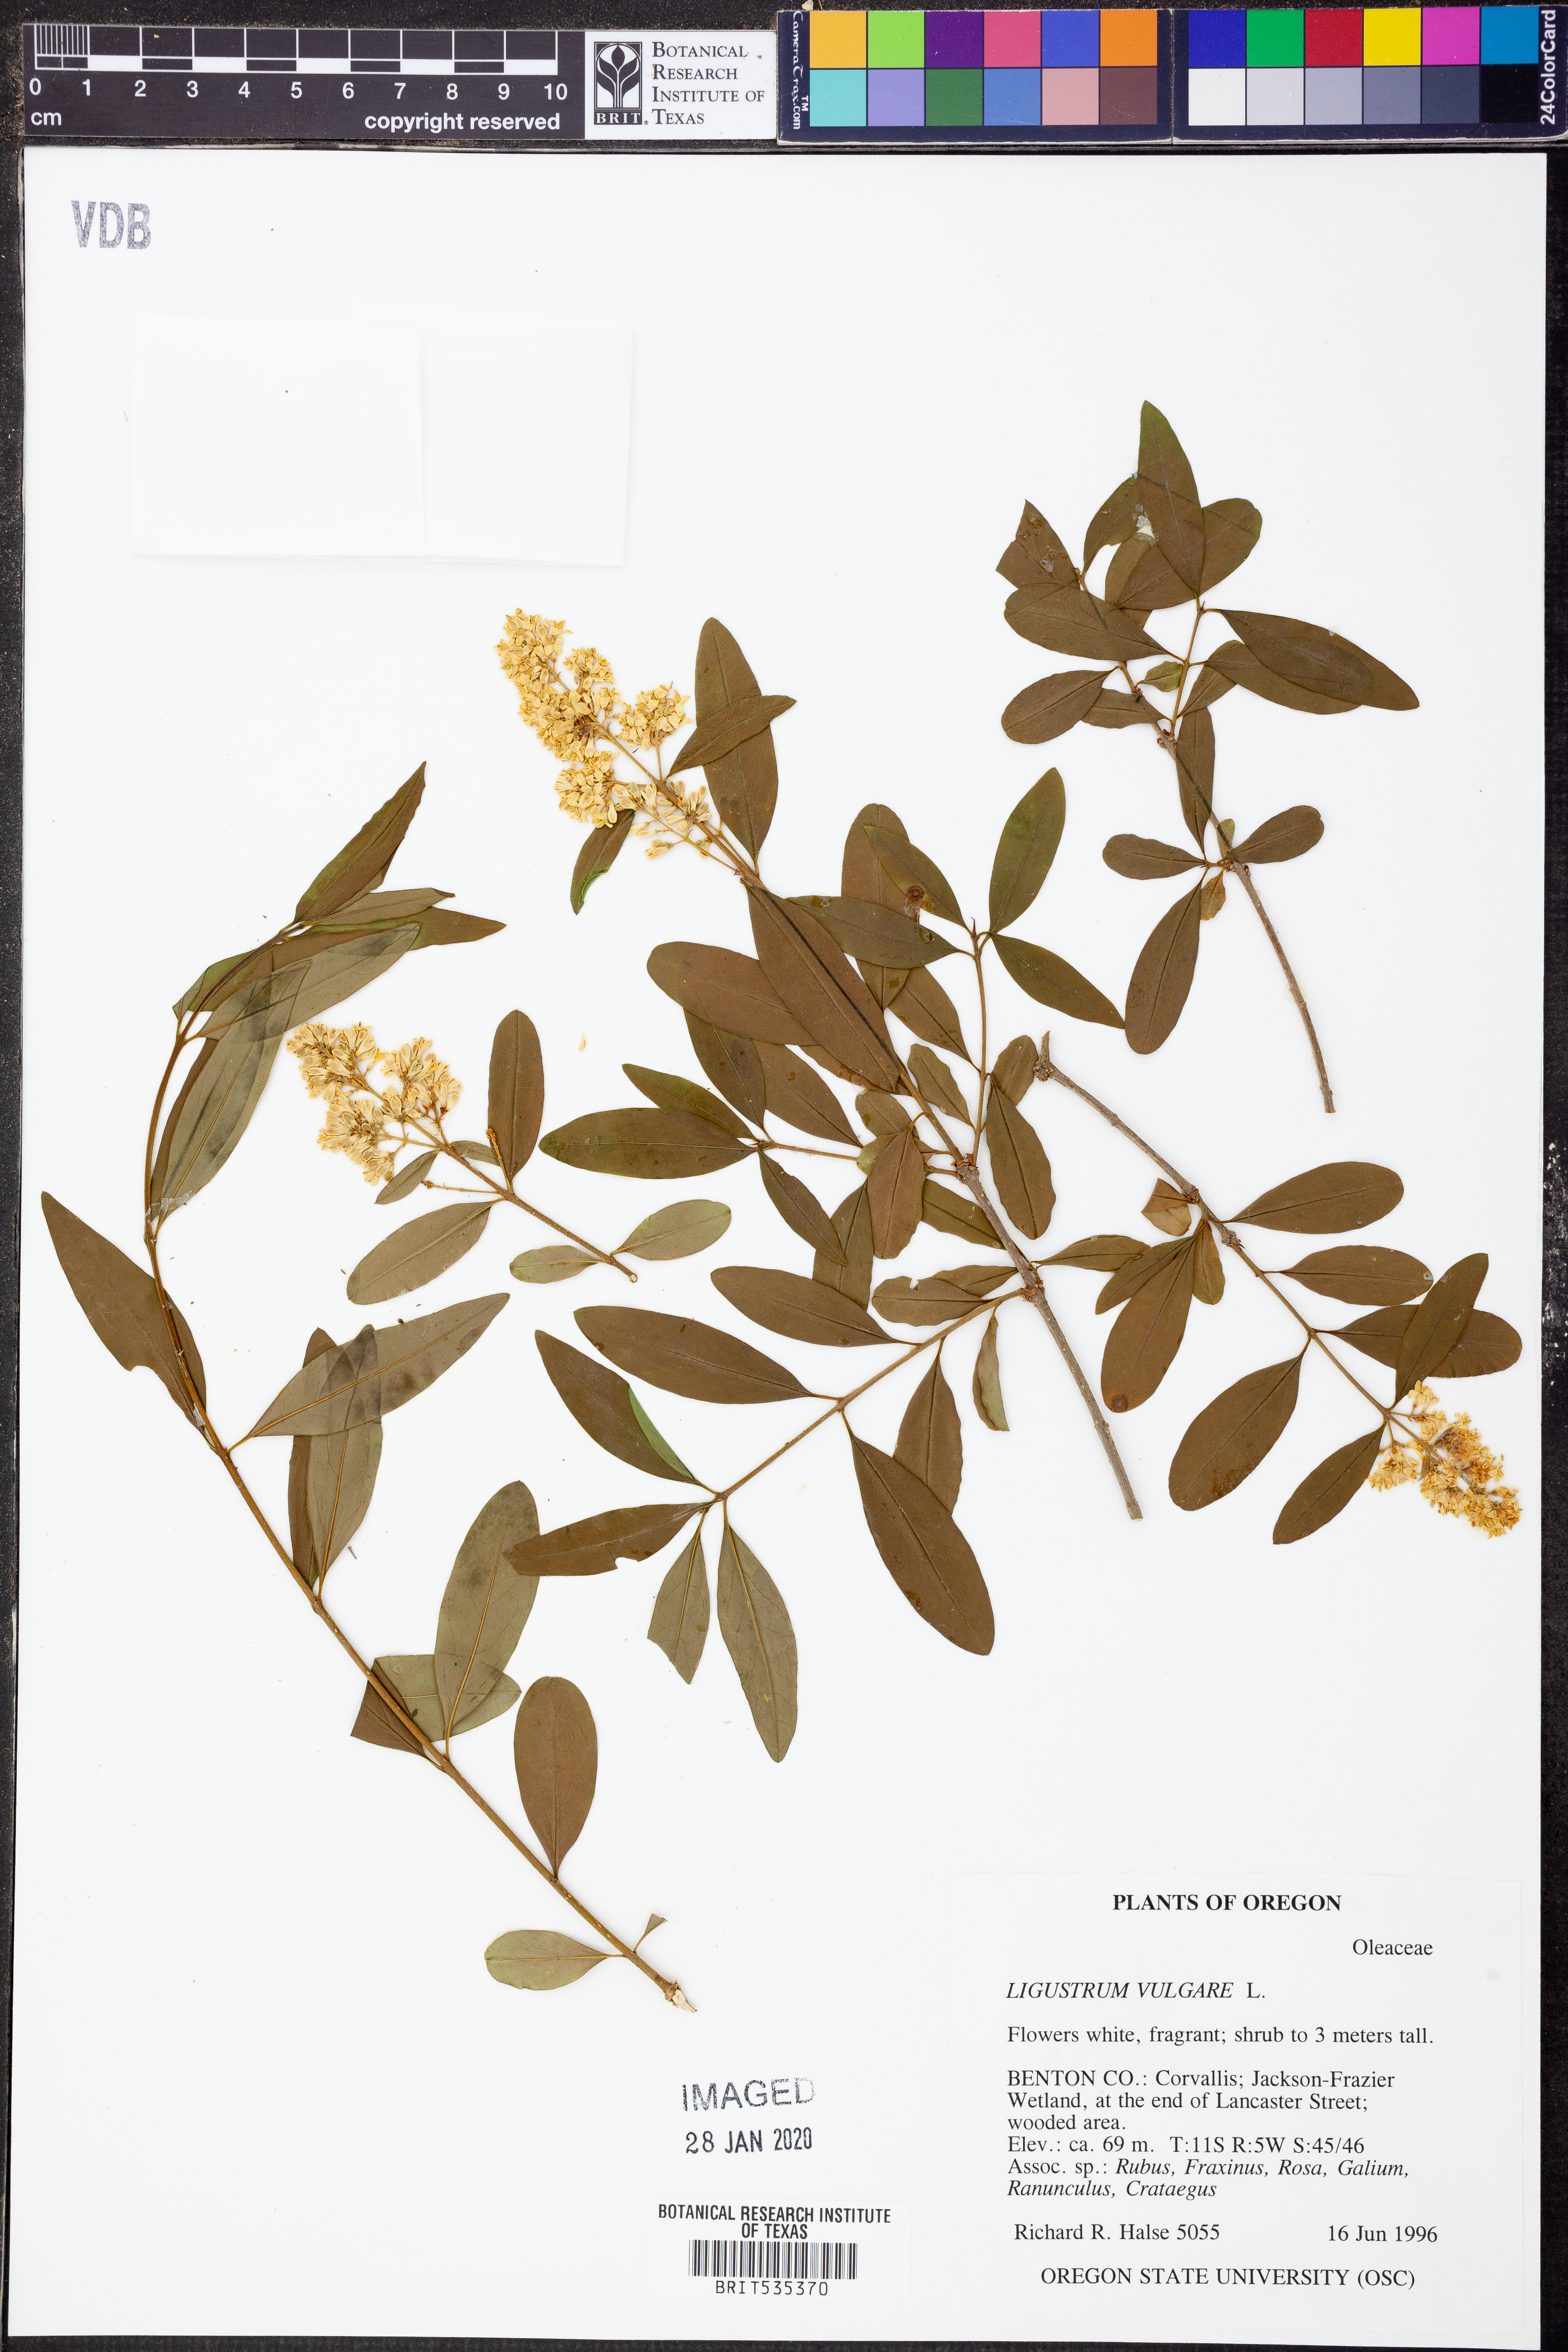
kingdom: Plantae
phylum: Tracheophyta
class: Magnoliopsida
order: Lamiales
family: Oleaceae
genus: Ligustrum
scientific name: Ligustrum vulgare
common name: Wild privet
